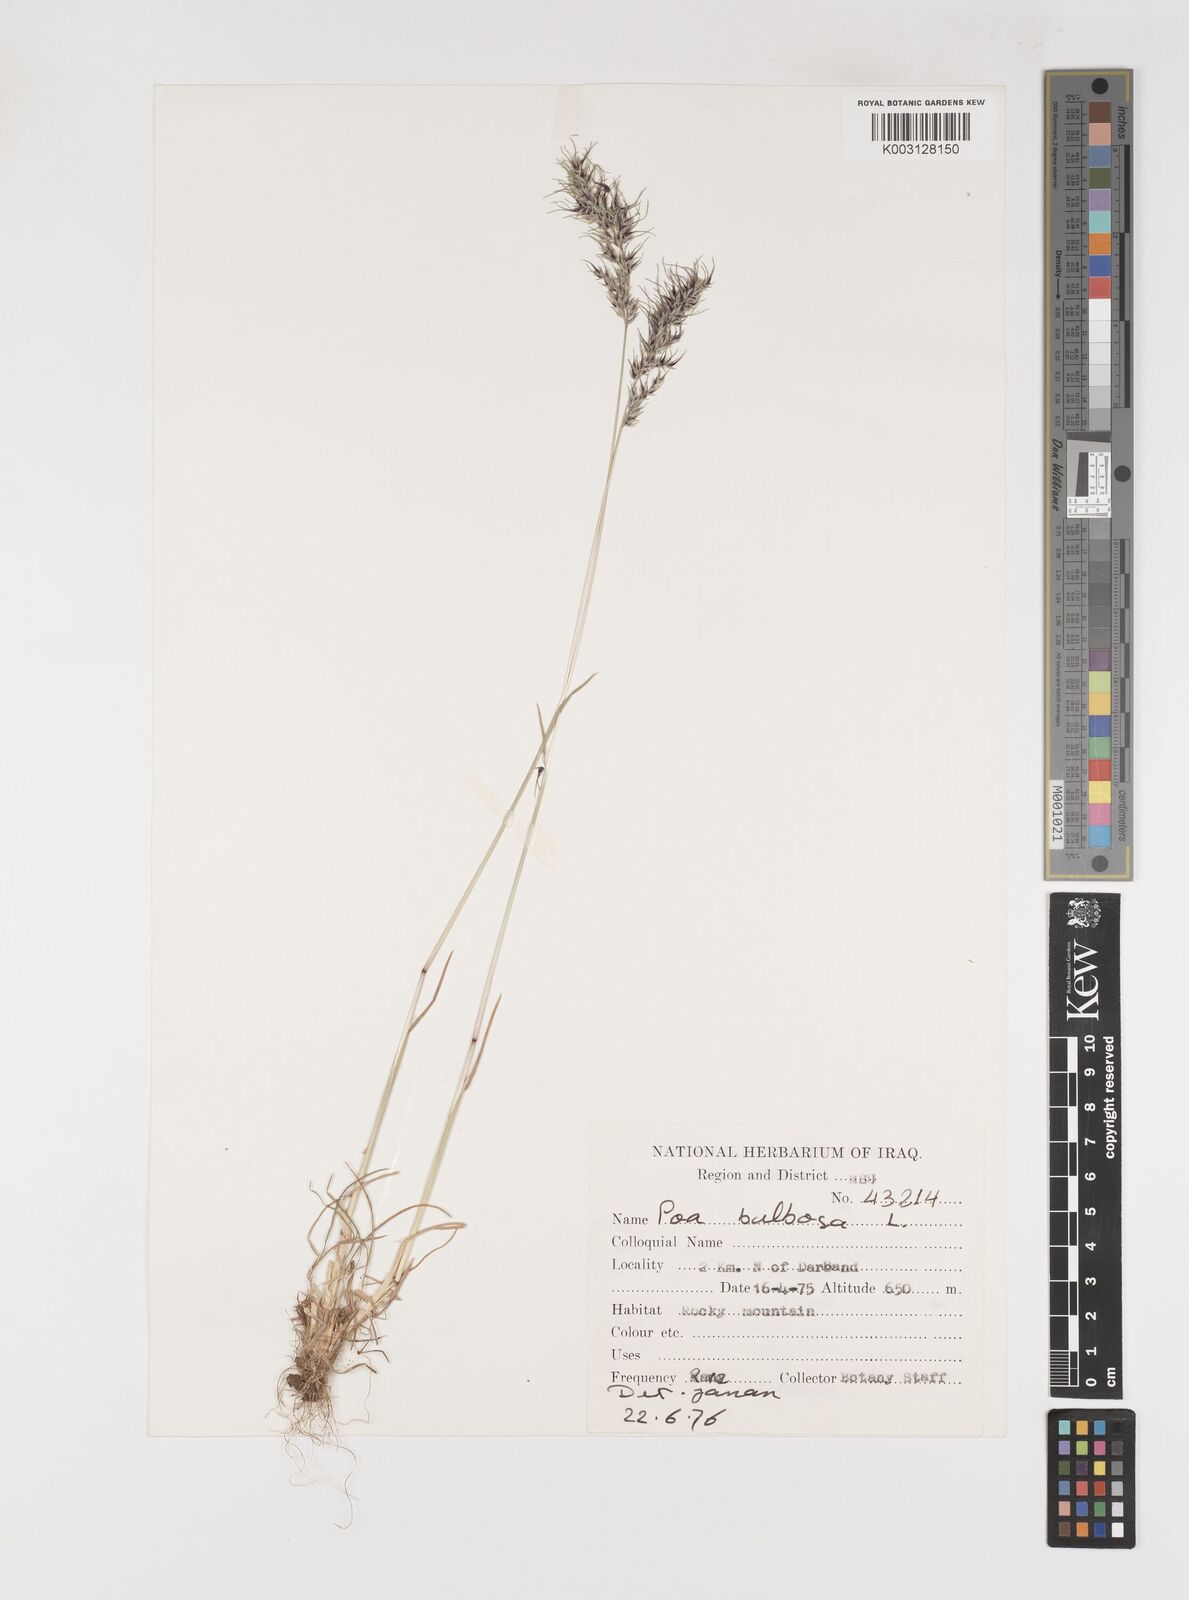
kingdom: Plantae
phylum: Tracheophyta
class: Liliopsida
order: Poales
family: Poaceae
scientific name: Poaceae
